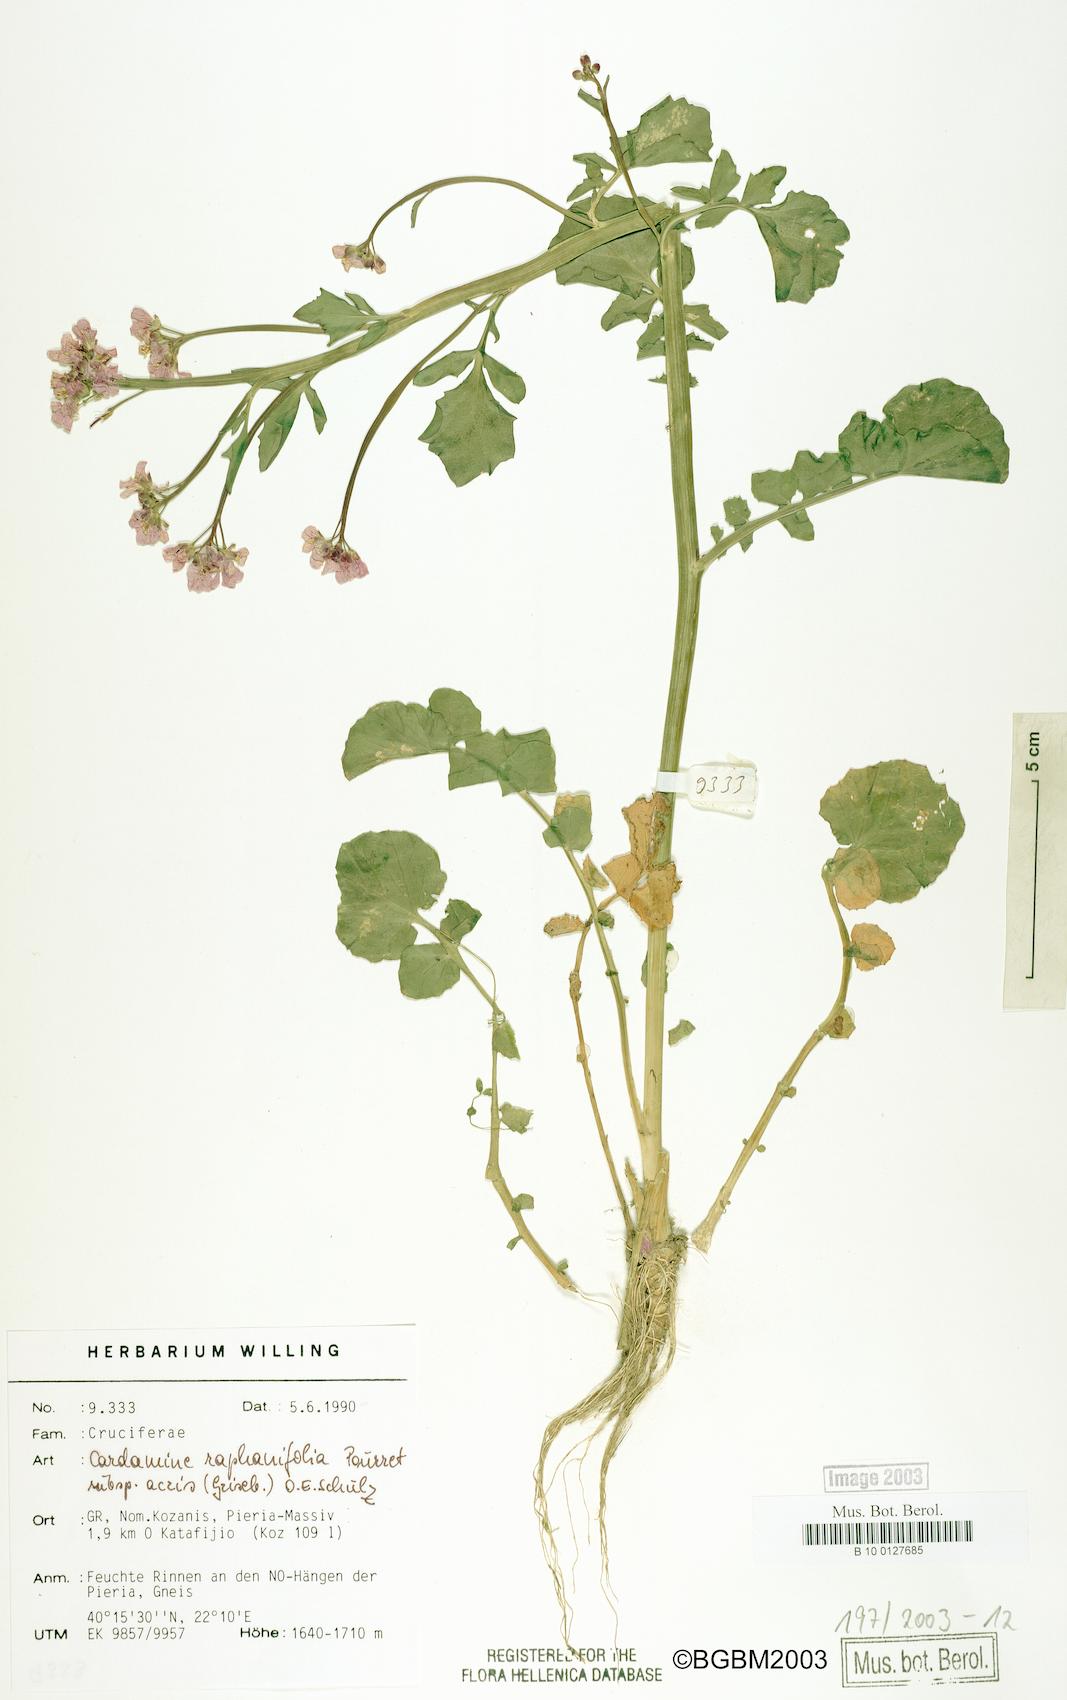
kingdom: Plantae
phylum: Tracheophyta
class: Magnoliopsida
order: Brassicales
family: Brassicaceae
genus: Cardamine
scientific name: Cardamine raphanifolia
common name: Greater cuckooflower
